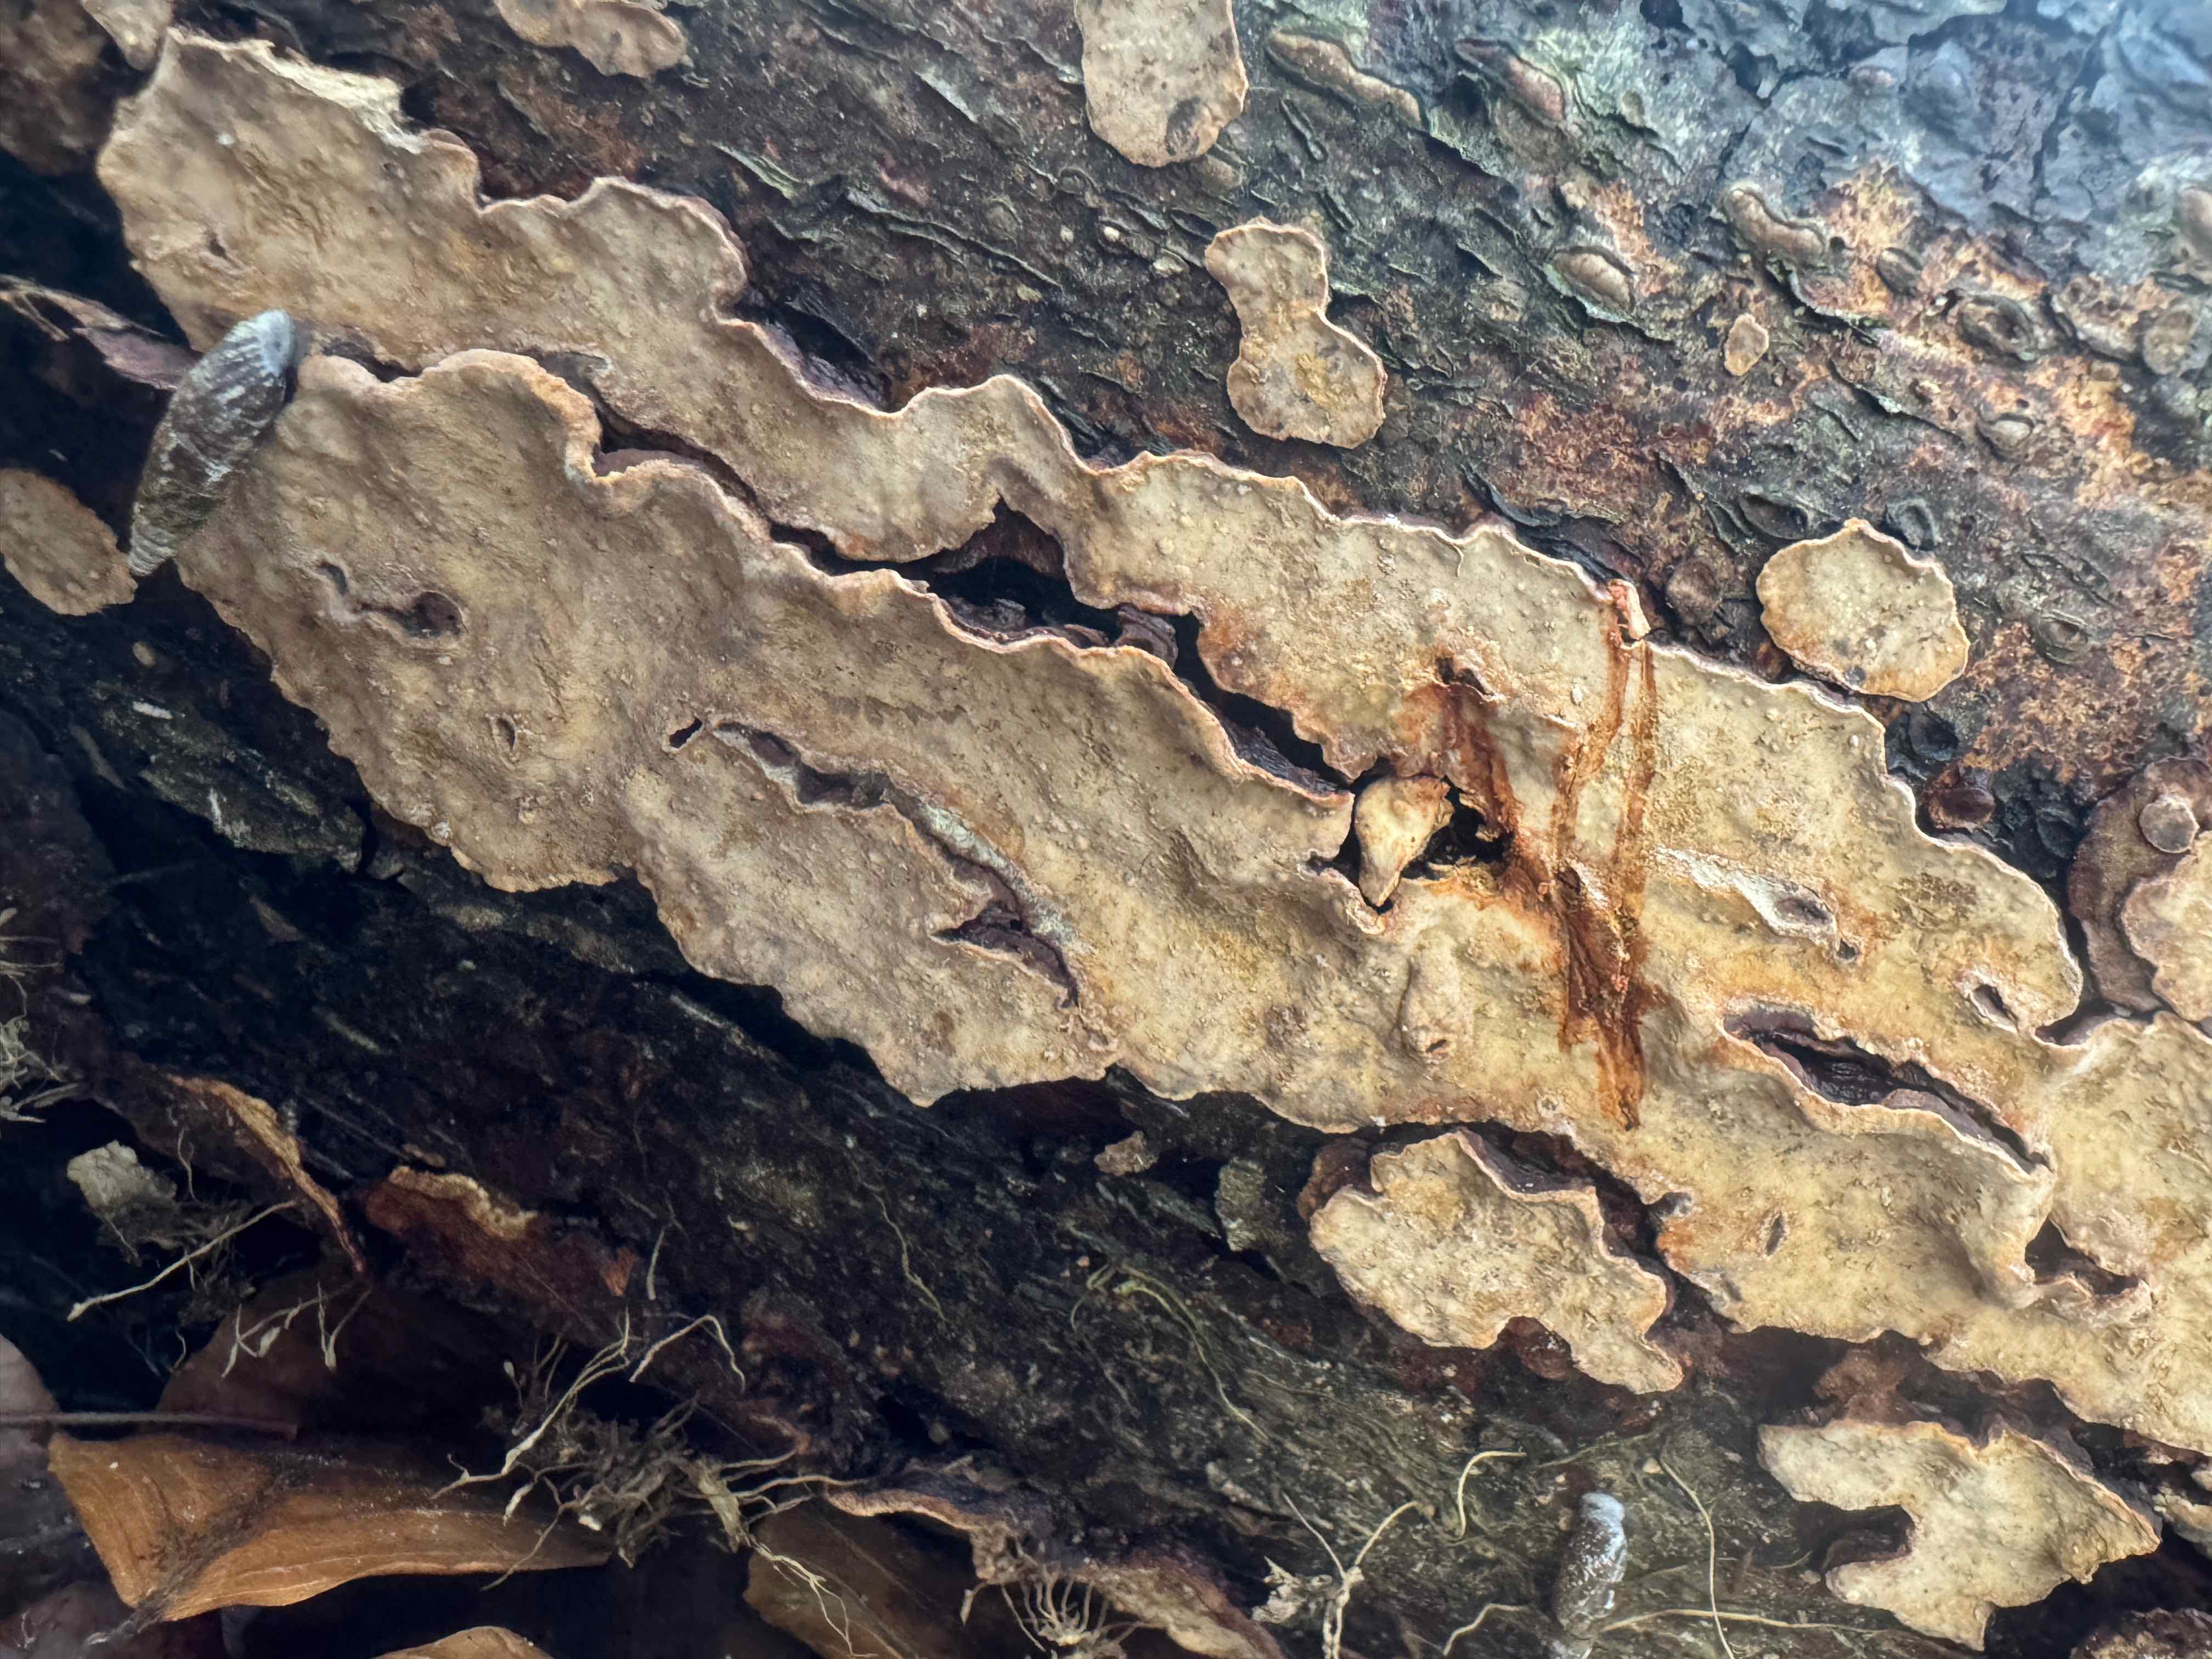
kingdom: Fungi
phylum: Basidiomycota
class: Agaricomycetes
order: Russulales
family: Stereaceae
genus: Stereum
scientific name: Stereum rugosum
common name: rynket lædersvamp
